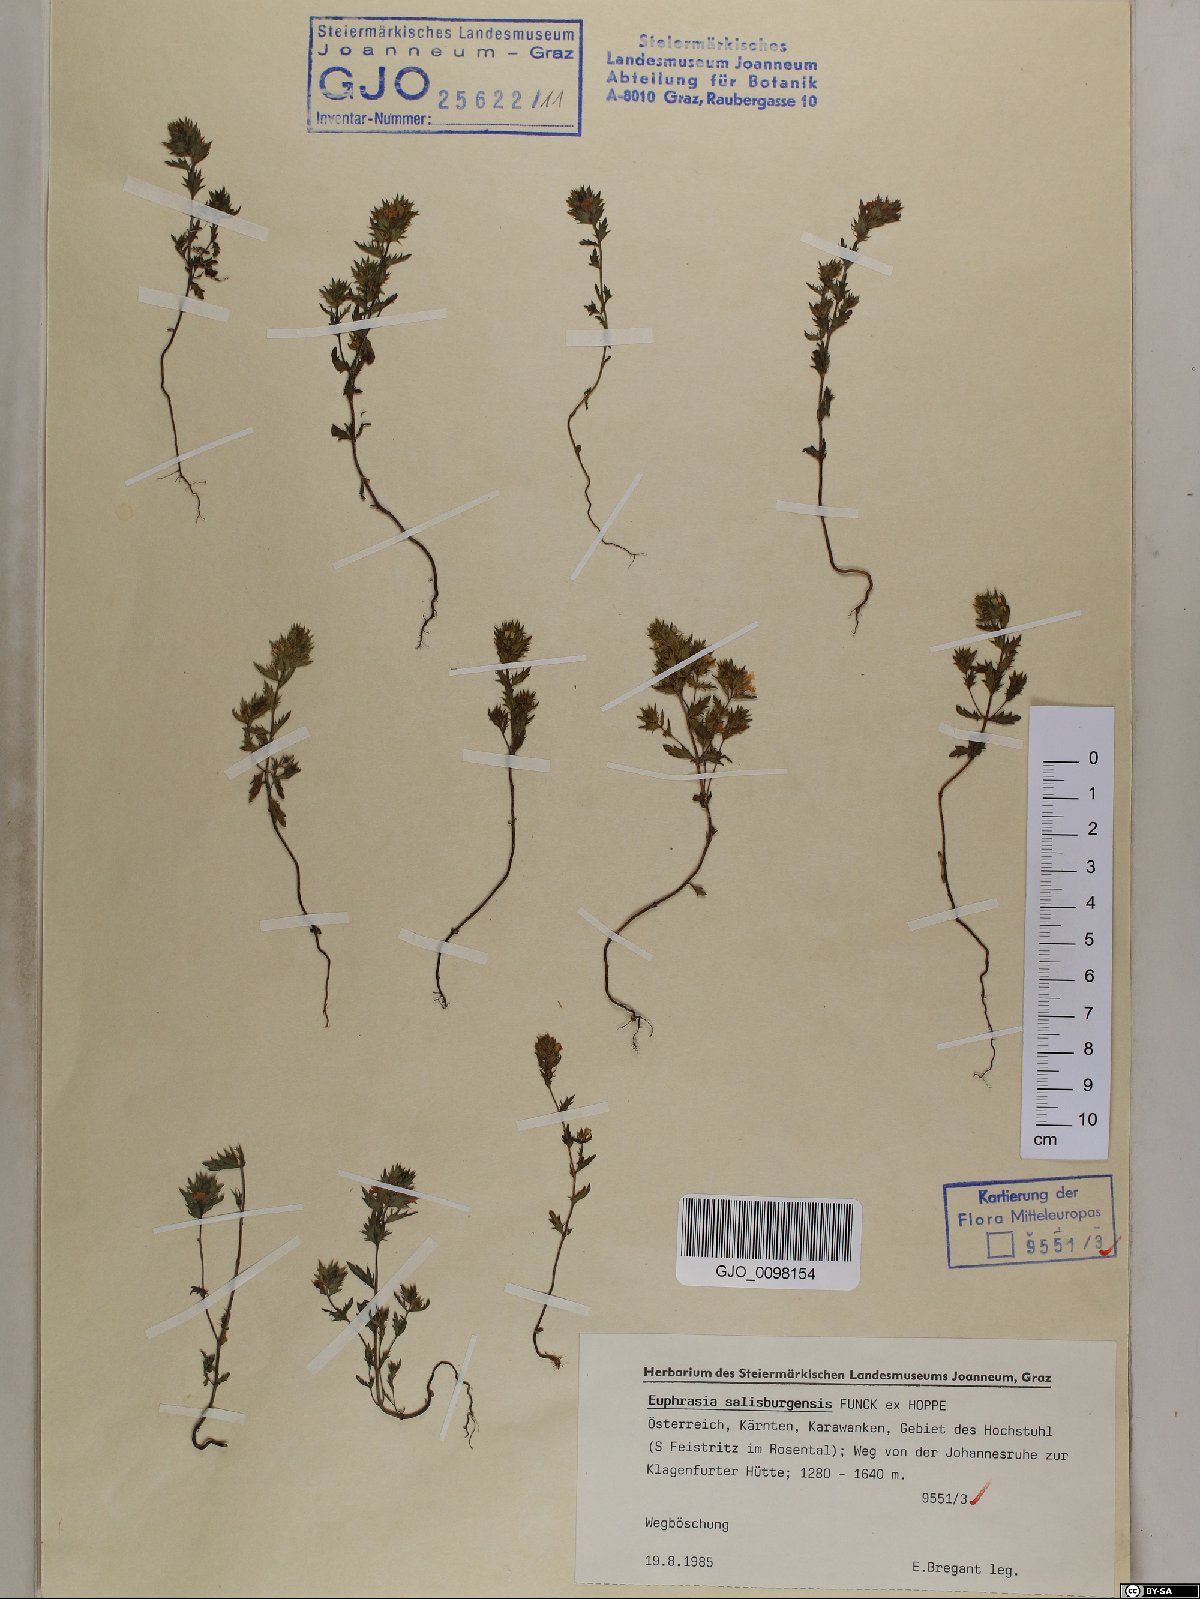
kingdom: Plantae
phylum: Tracheophyta
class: Magnoliopsida
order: Lamiales
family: Orobanchaceae
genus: Euphrasia
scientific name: Euphrasia salisburgensis
